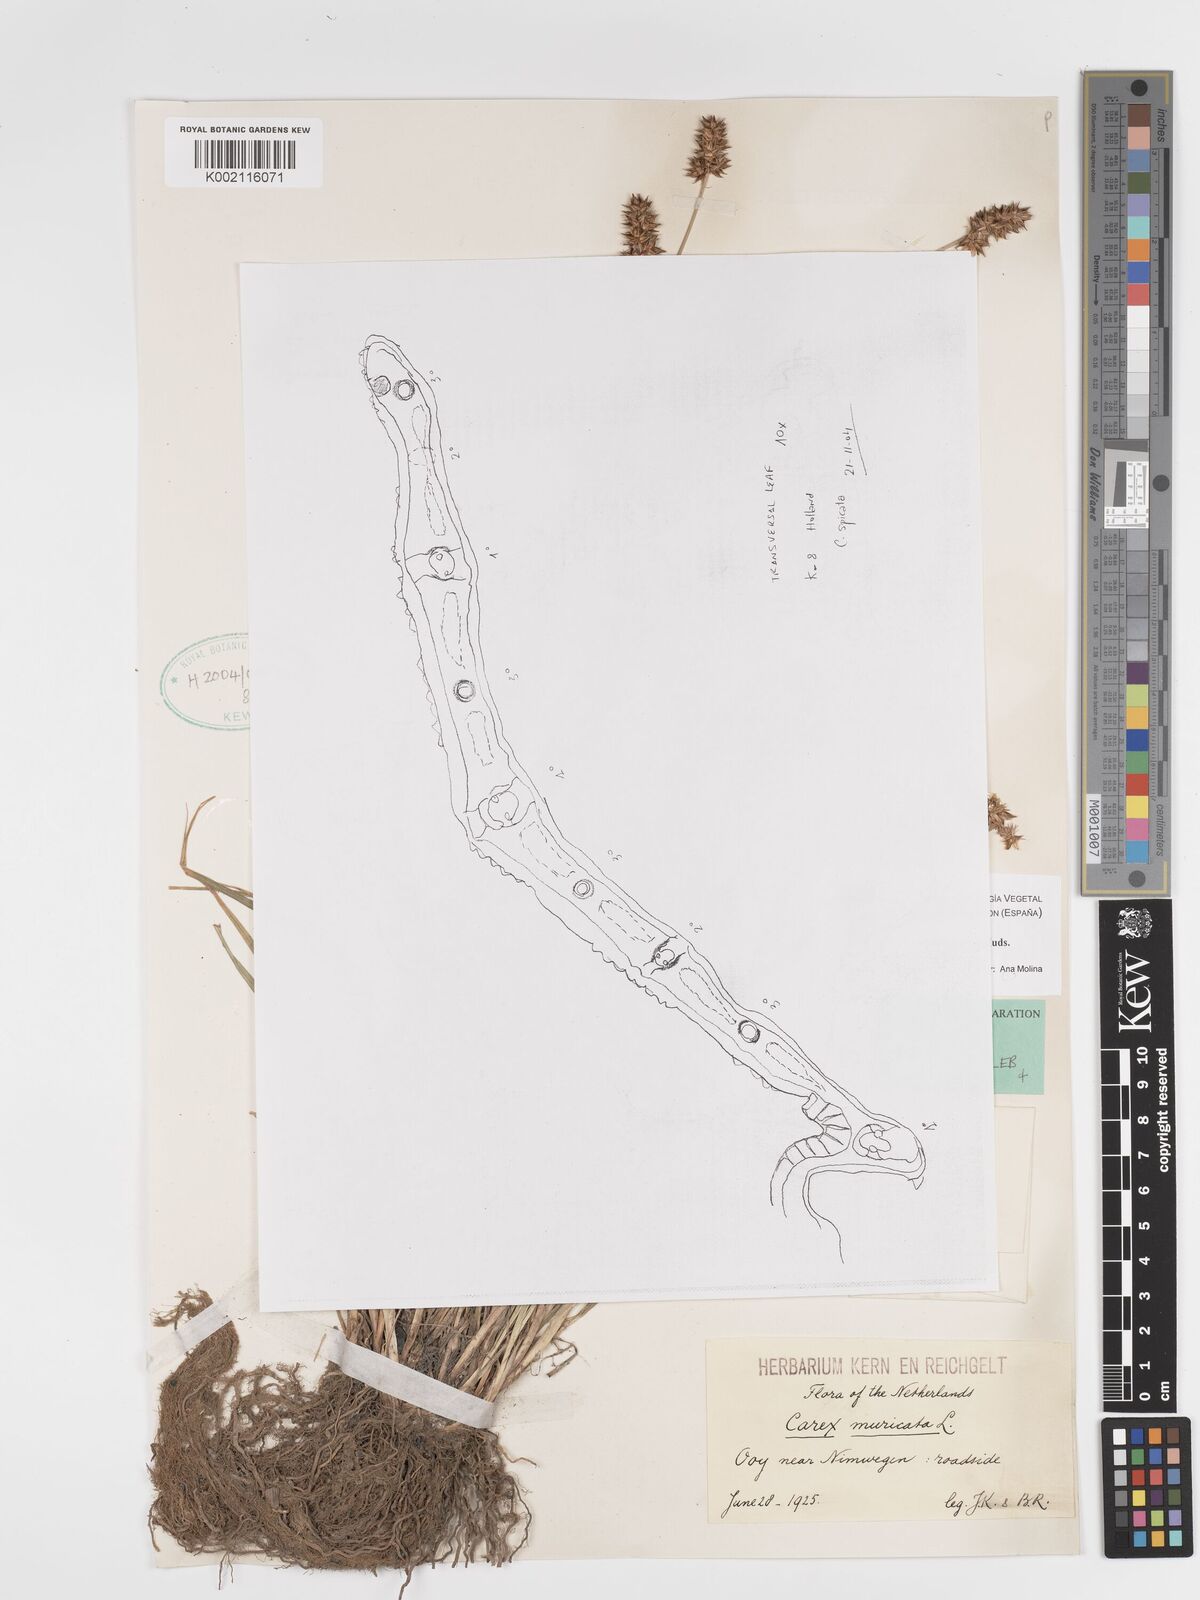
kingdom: Plantae
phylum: Tracheophyta
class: Liliopsida
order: Poales
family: Cyperaceae
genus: Carex
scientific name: Carex spicata
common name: Spiked sedge
